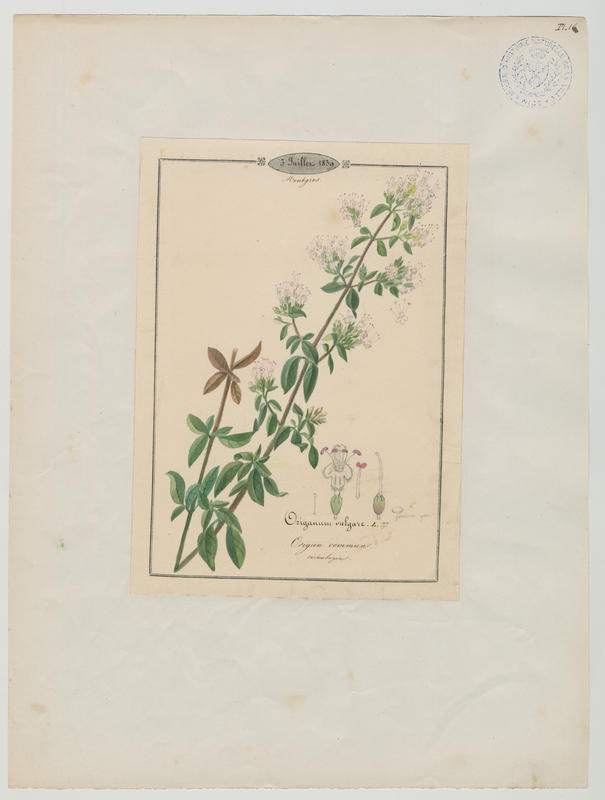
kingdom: Plantae
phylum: Tracheophyta
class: Magnoliopsida
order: Lamiales
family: Lamiaceae
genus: Origanum
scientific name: Origanum vulgare
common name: Wild marjoram
